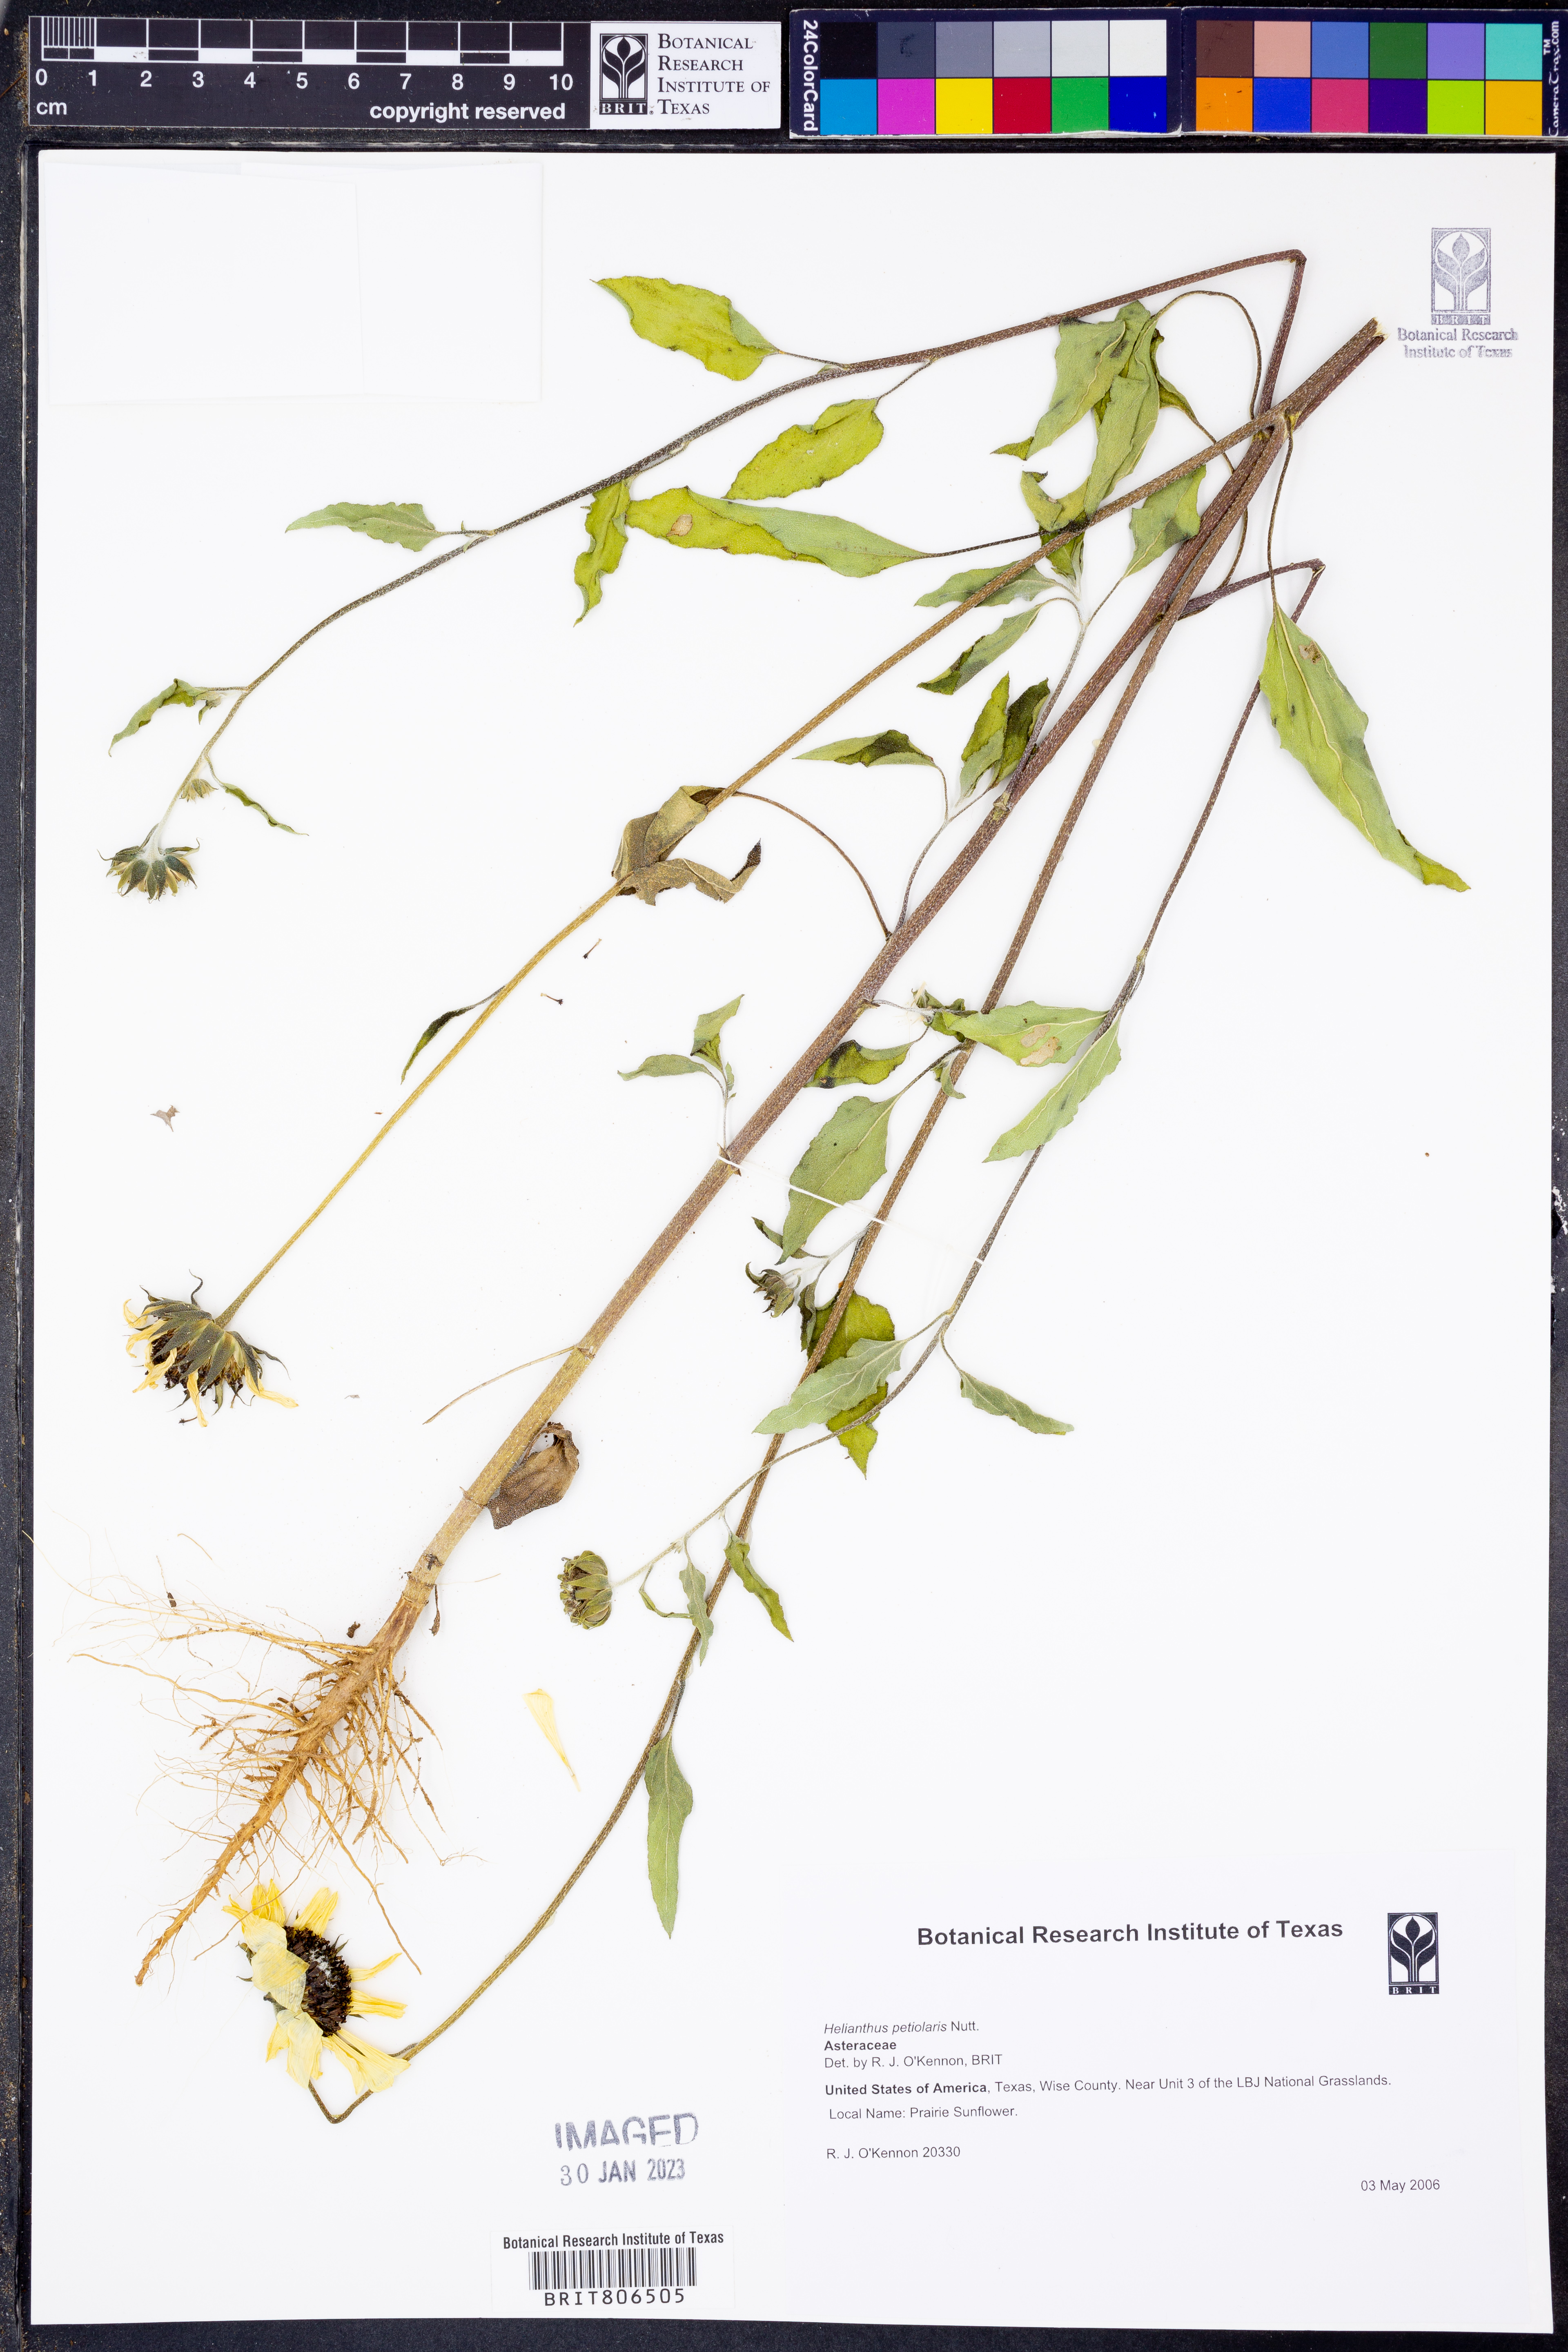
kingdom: Plantae
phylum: Tracheophyta
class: Magnoliopsida
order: Asterales
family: Asteraceae
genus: Helianthus
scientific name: Helianthus petiolaris
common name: Lesser sunflower
